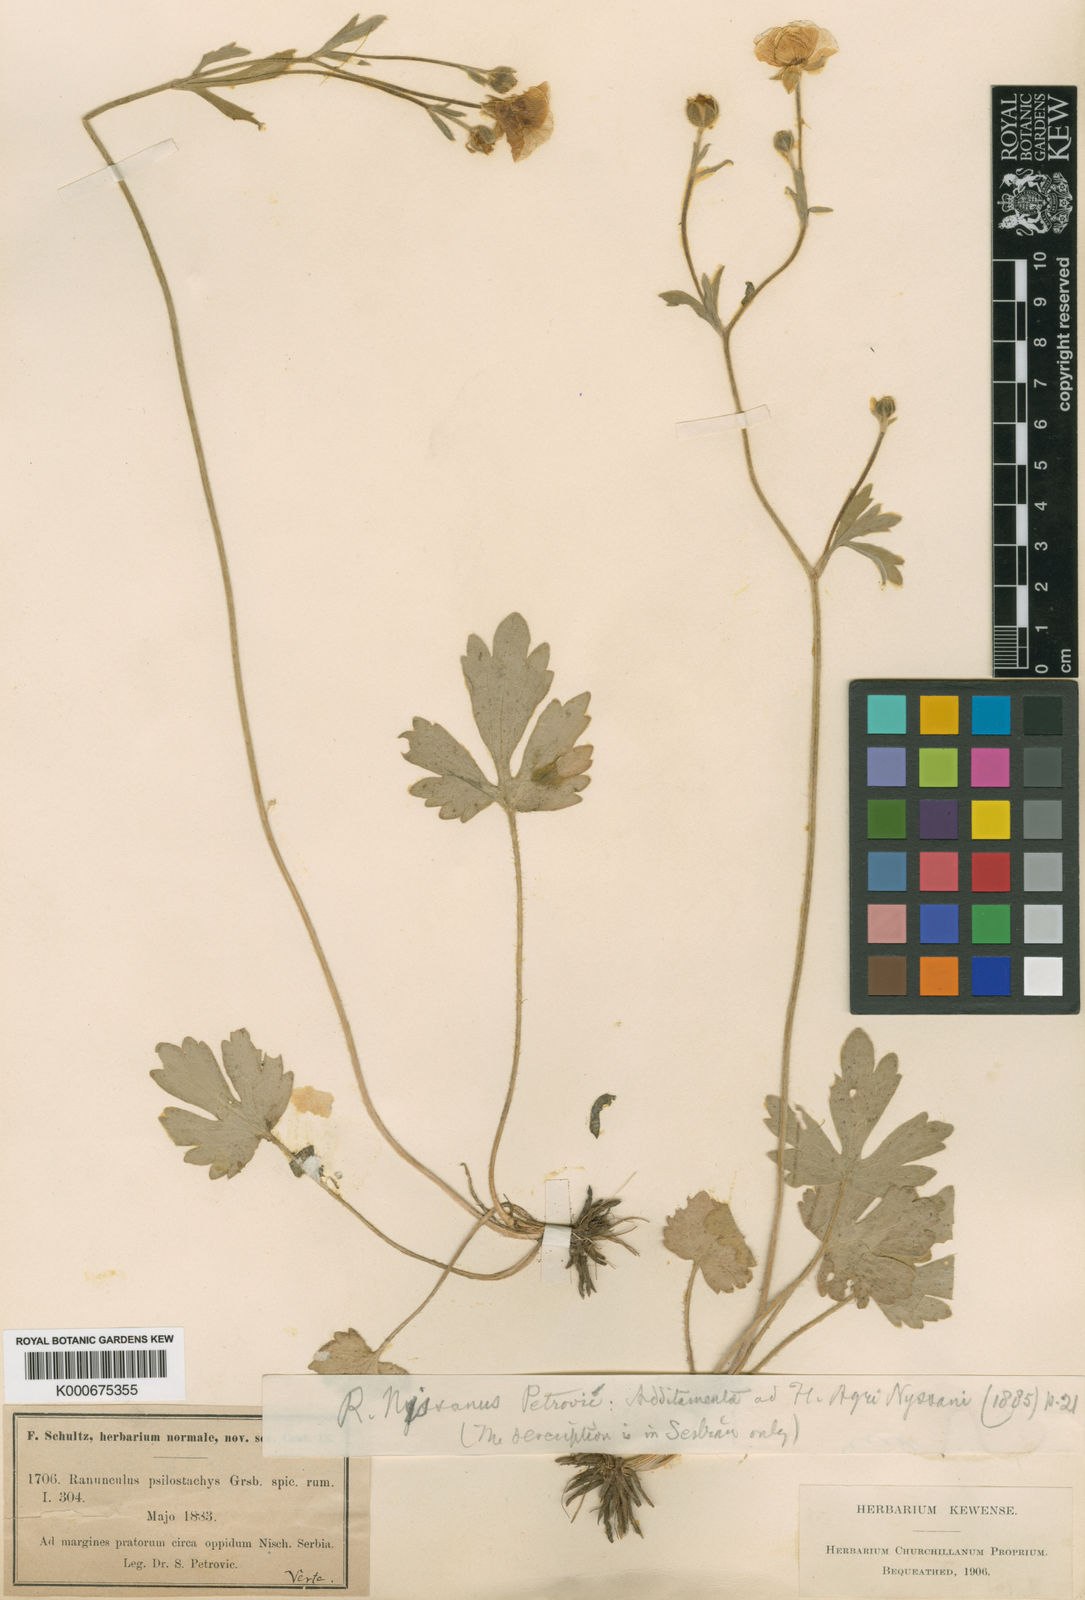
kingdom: Plantae
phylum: Tracheophyta
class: Magnoliopsida
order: Ranunculales
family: Ranunculaceae
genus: Ranunculus
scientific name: Ranunculus psilostachys
